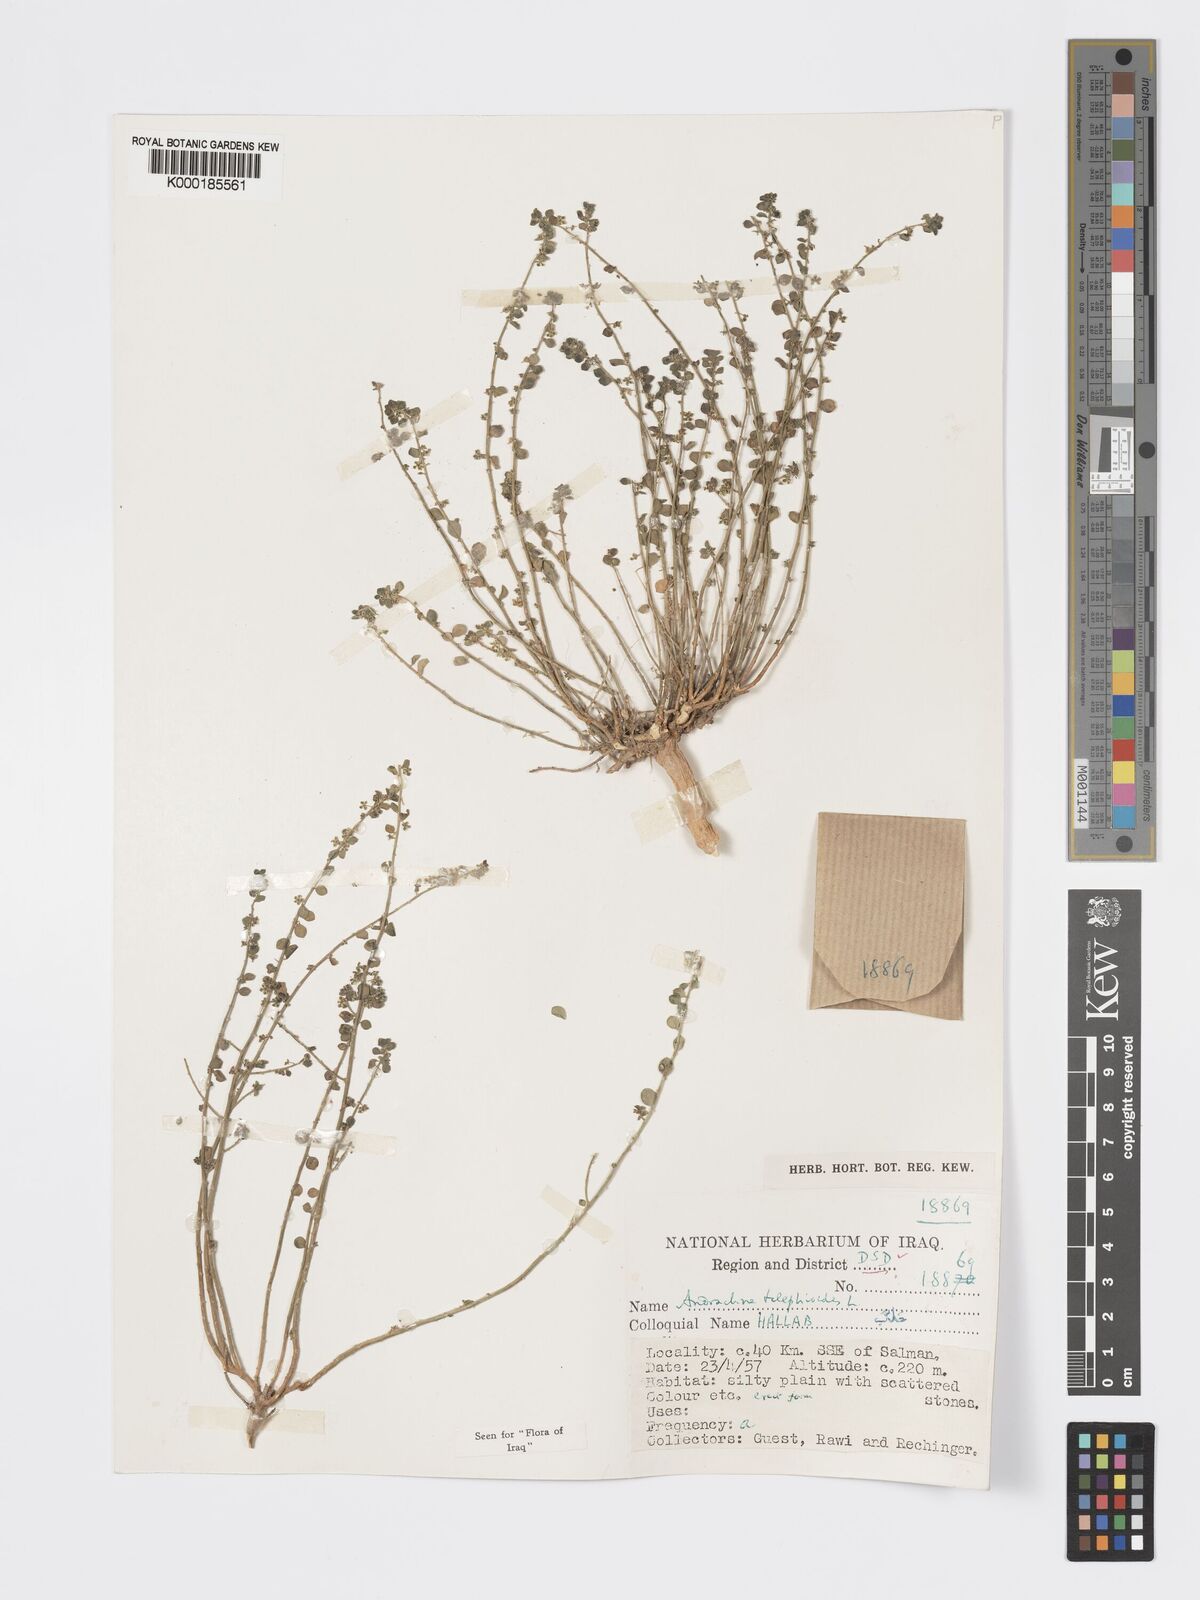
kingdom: Plantae
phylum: Tracheophyta
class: Magnoliopsida
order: Malpighiales
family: Phyllanthaceae
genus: Andrachne
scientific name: Andrachne telephioides
